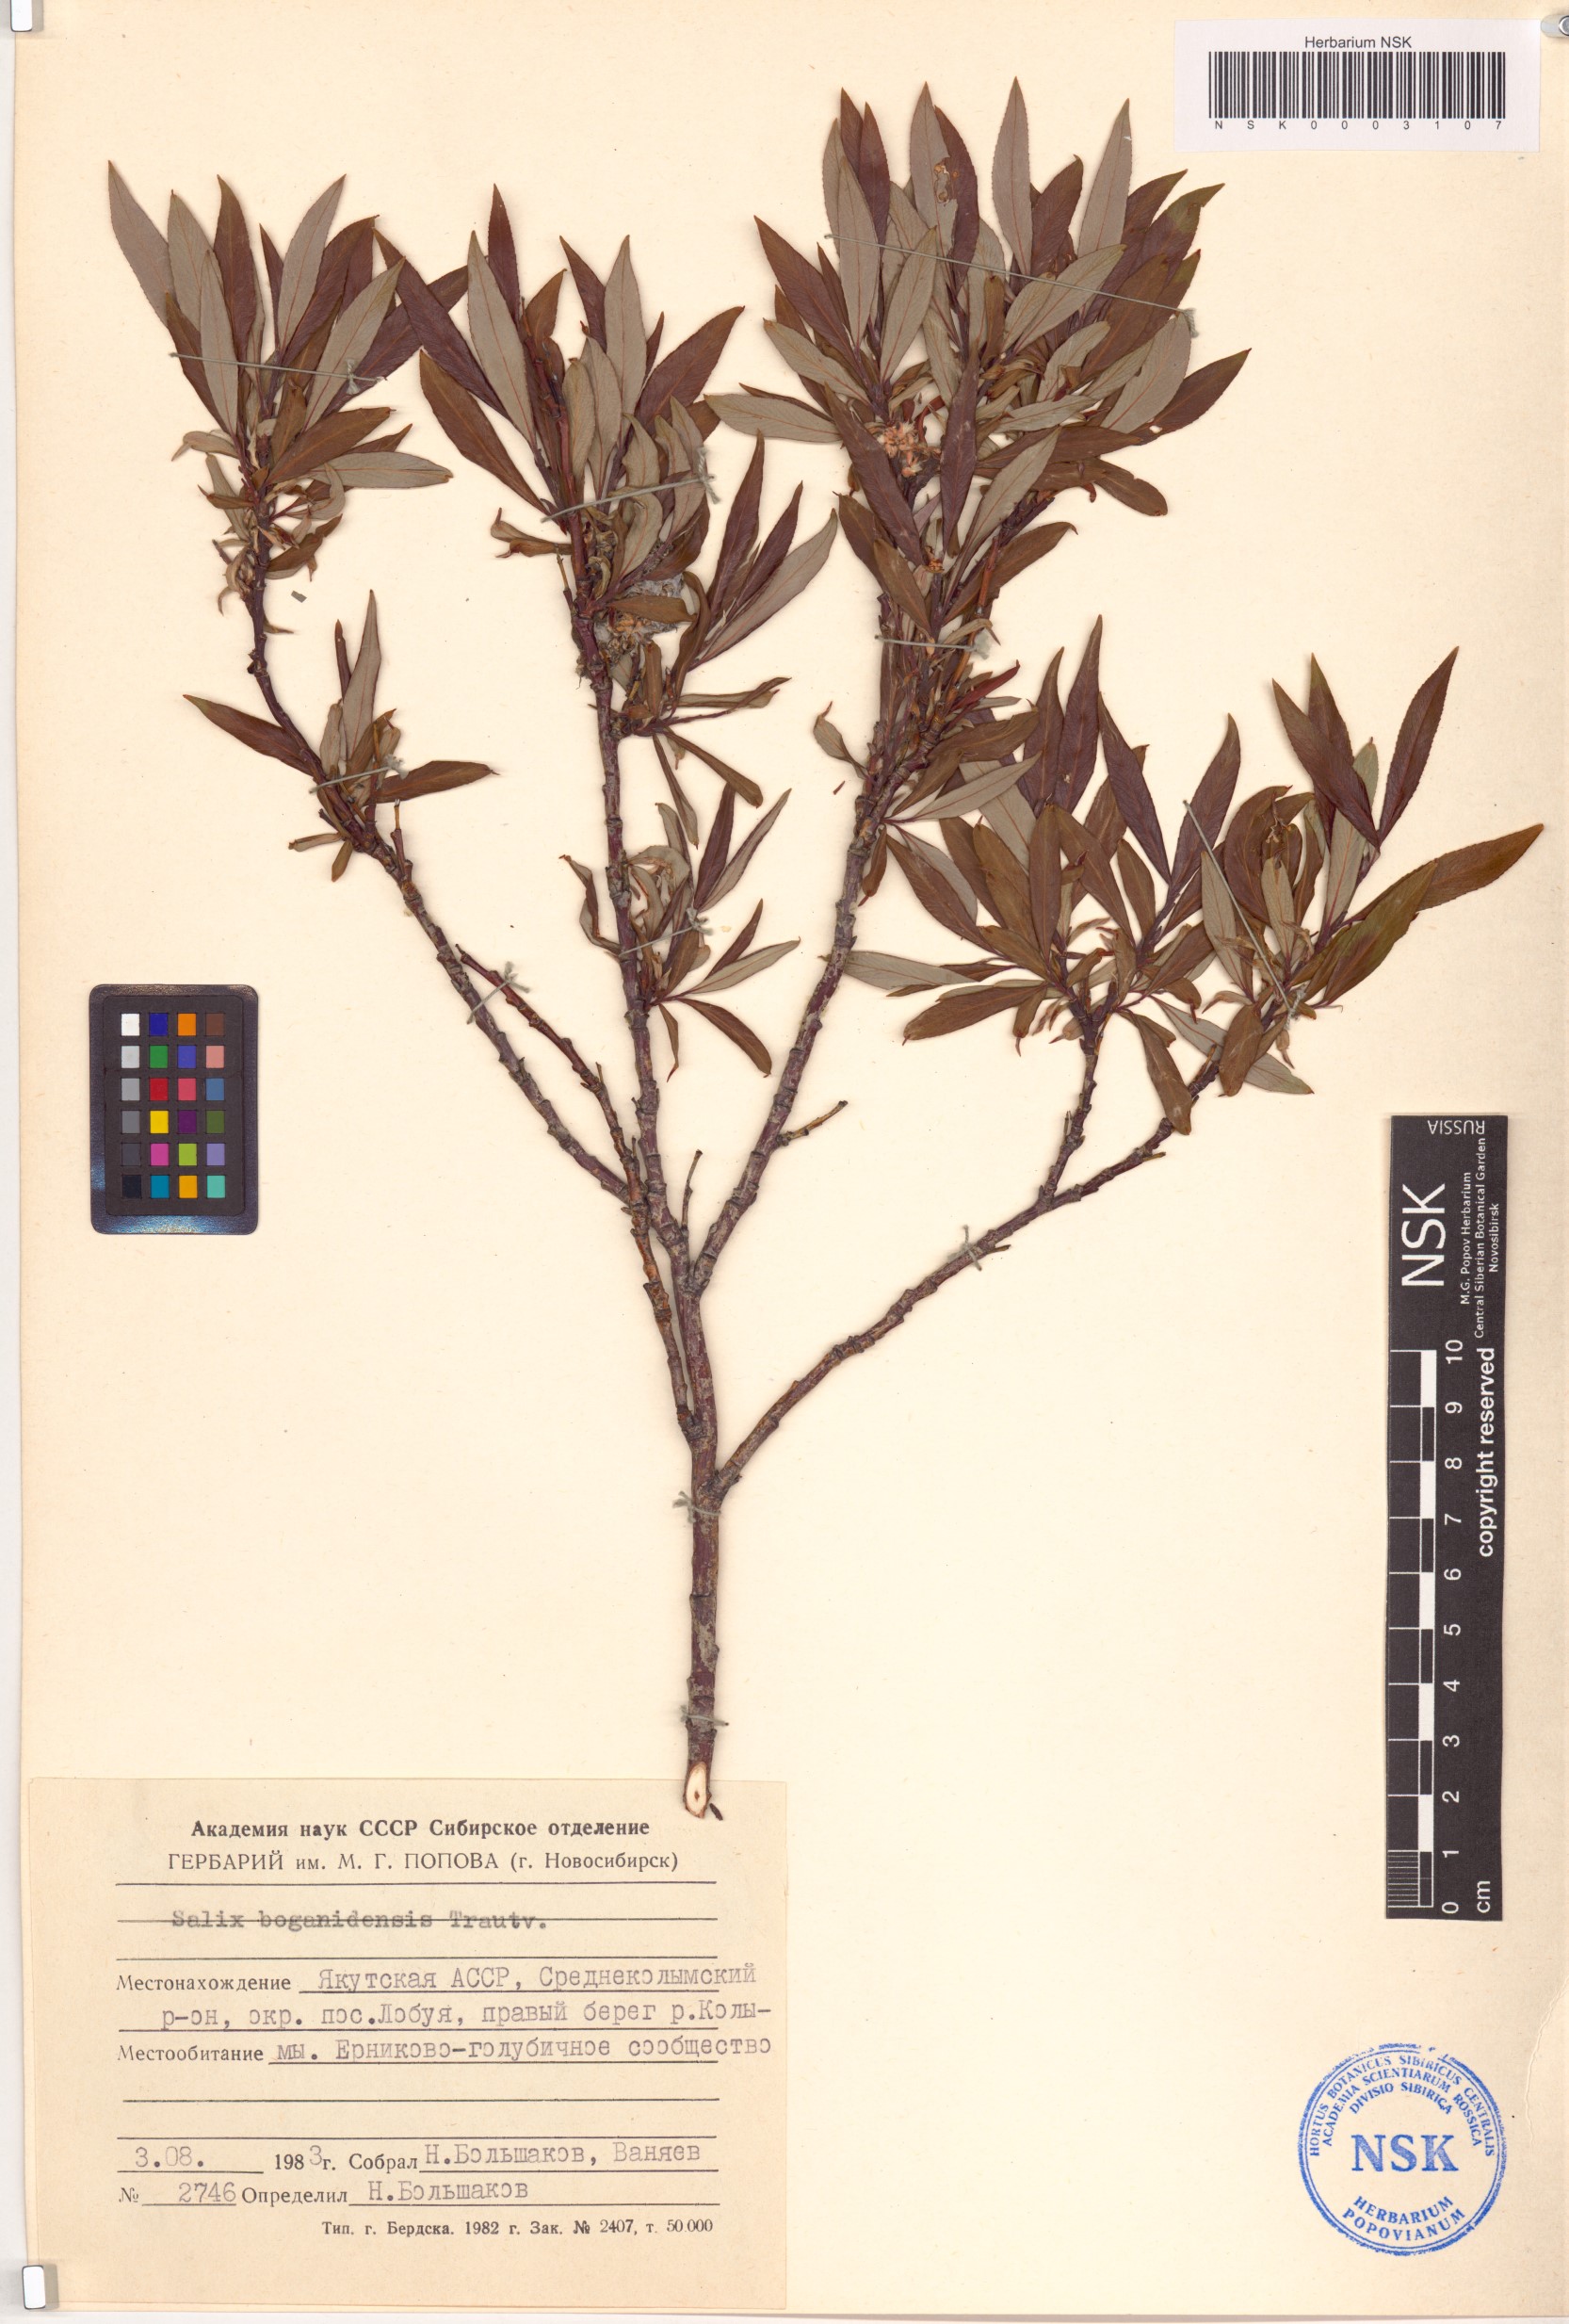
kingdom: Plantae
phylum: Tracheophyta
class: Magnoliopsida
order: Malpighiales
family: Salicaceae
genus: Salix
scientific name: Salix boganidensis
